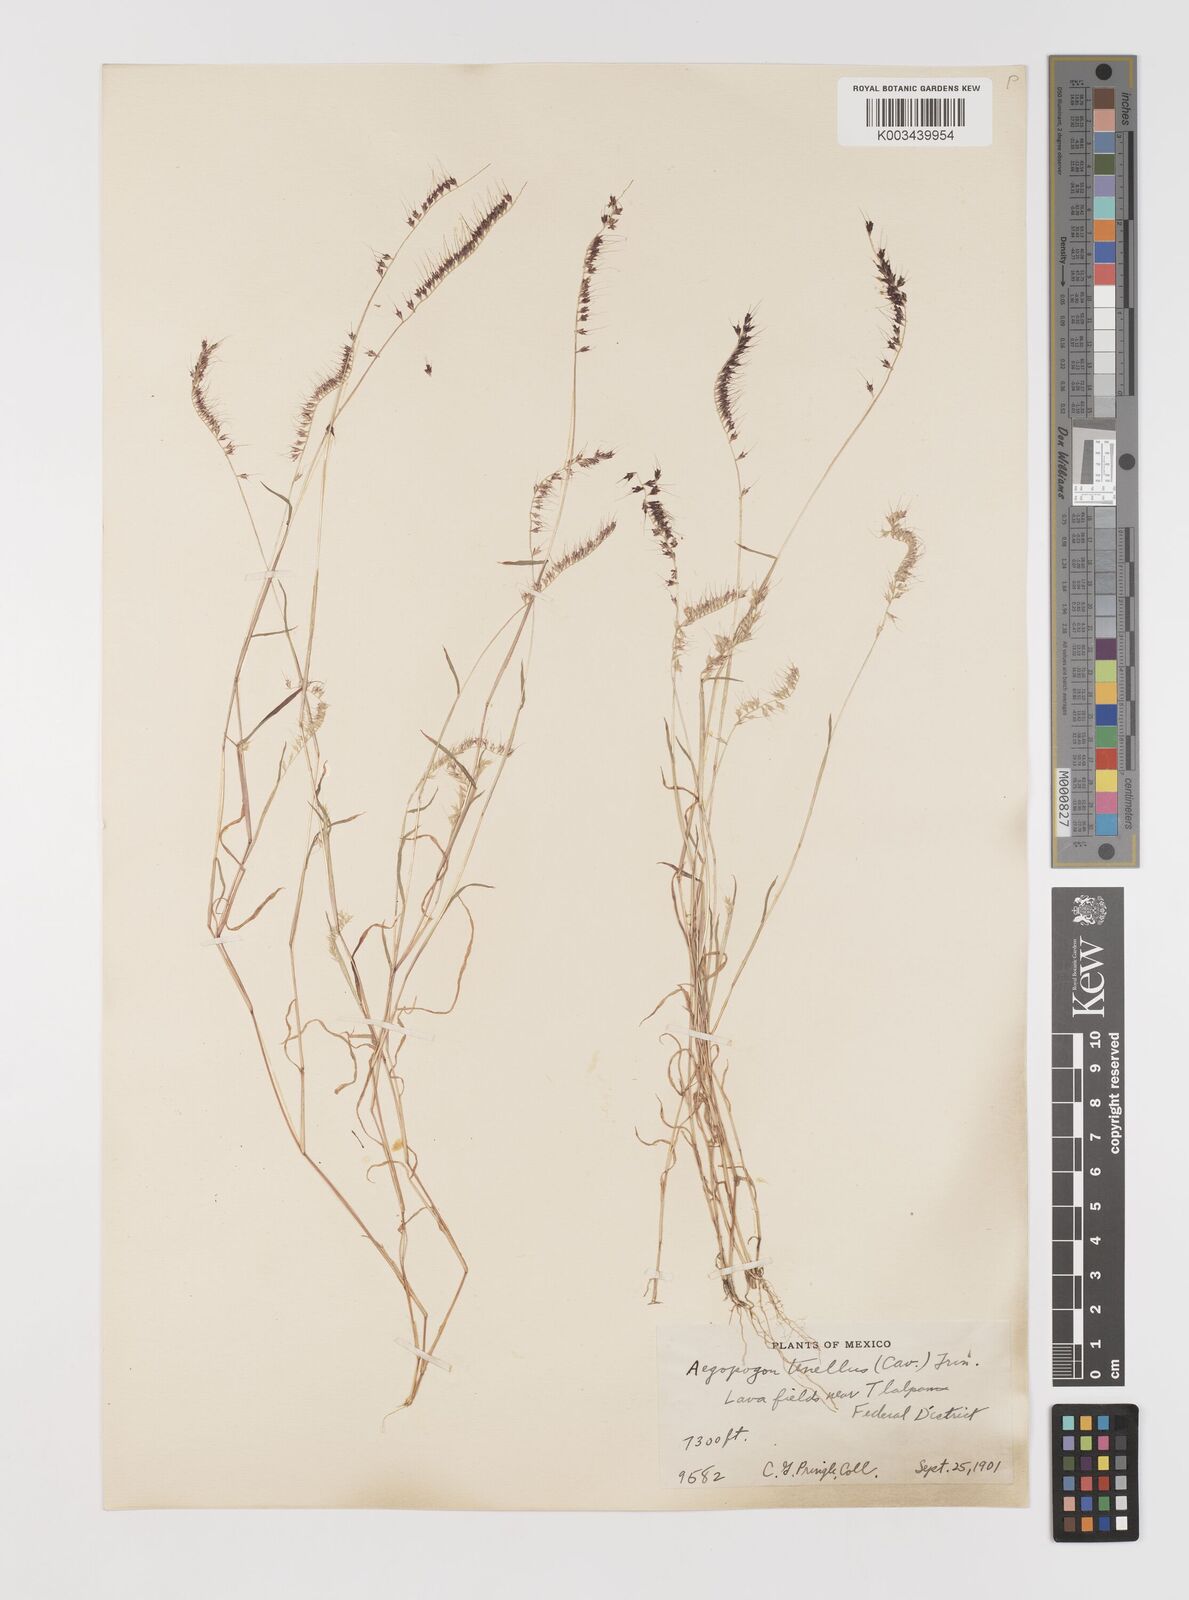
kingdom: Plantae
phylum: Tracheophyta
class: Liliopsida
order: Poales
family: Poaceae
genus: Muhlenbergia
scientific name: Muhlenbergia uniseta
